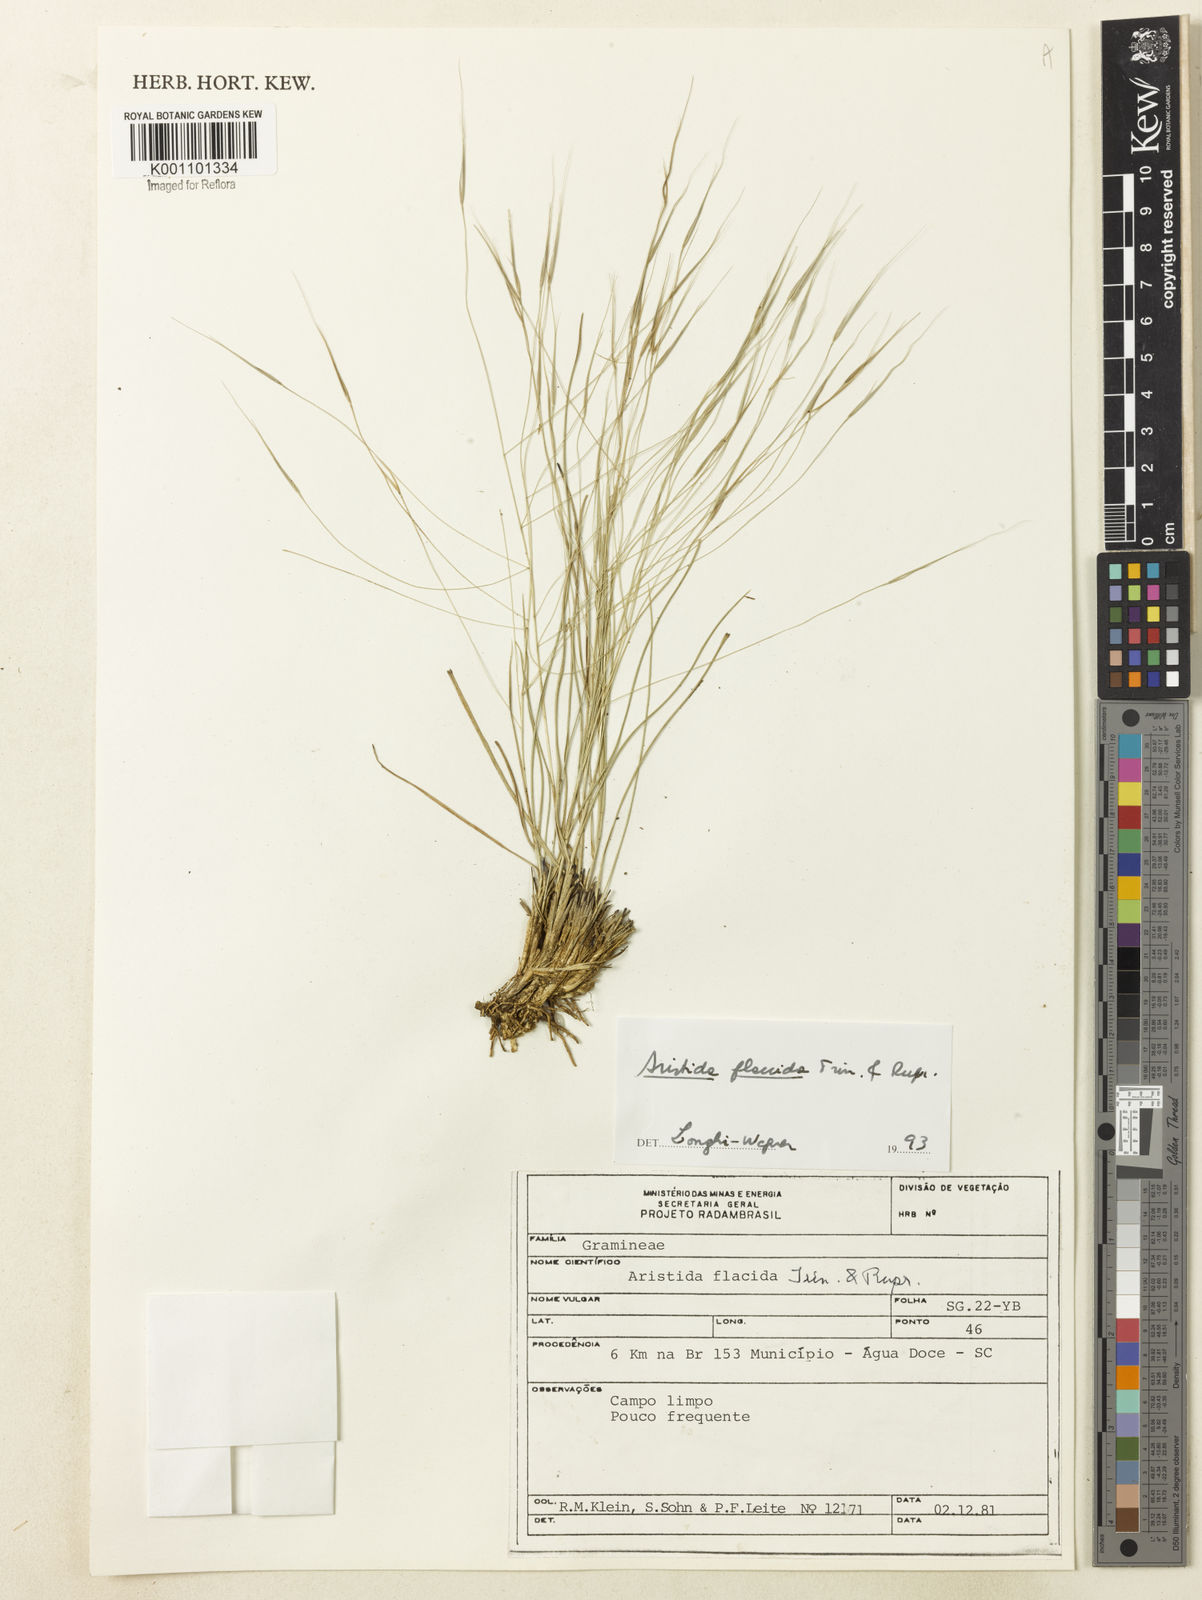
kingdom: Plantae
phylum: Tracheophyta
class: Liliopsida
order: Poales
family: Poaceae
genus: Aristida
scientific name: Aristida flaccida
